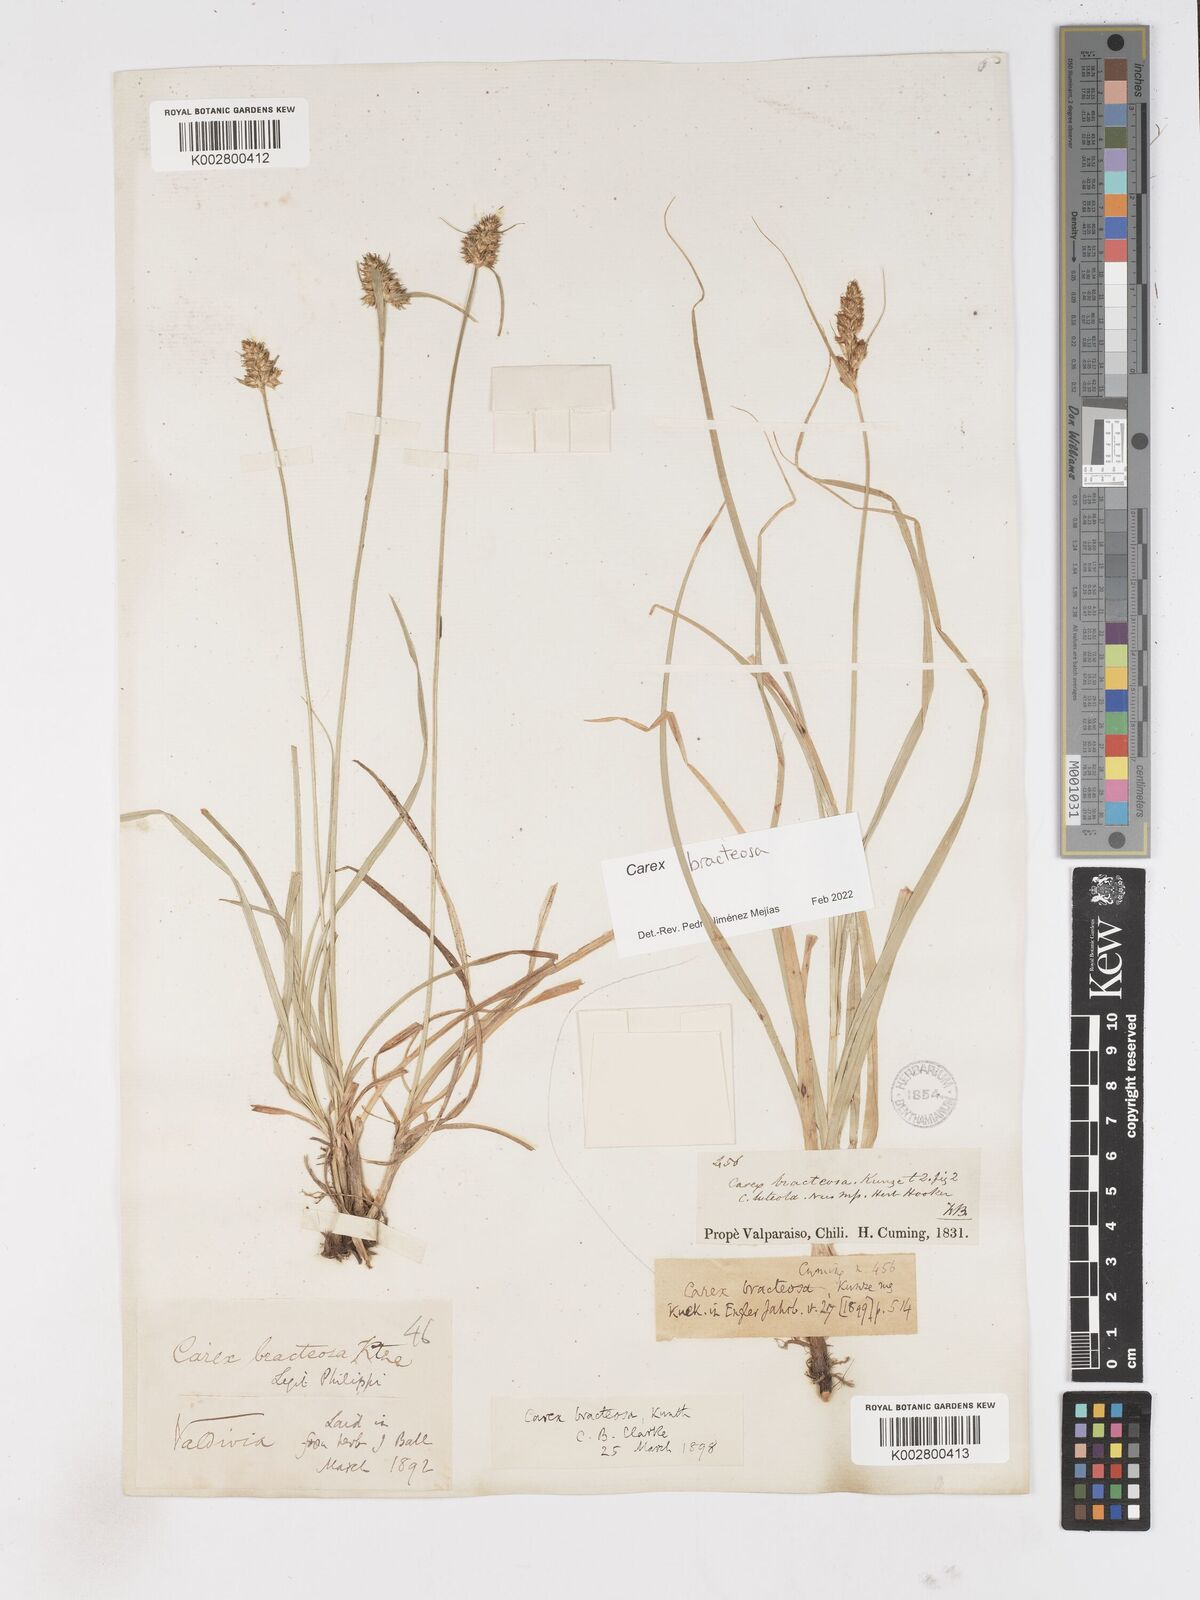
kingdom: Plantae
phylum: Tracheophyta
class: Liliopsida
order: Poales
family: Cyperaceae
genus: Carex
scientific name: Carex bracteosa
